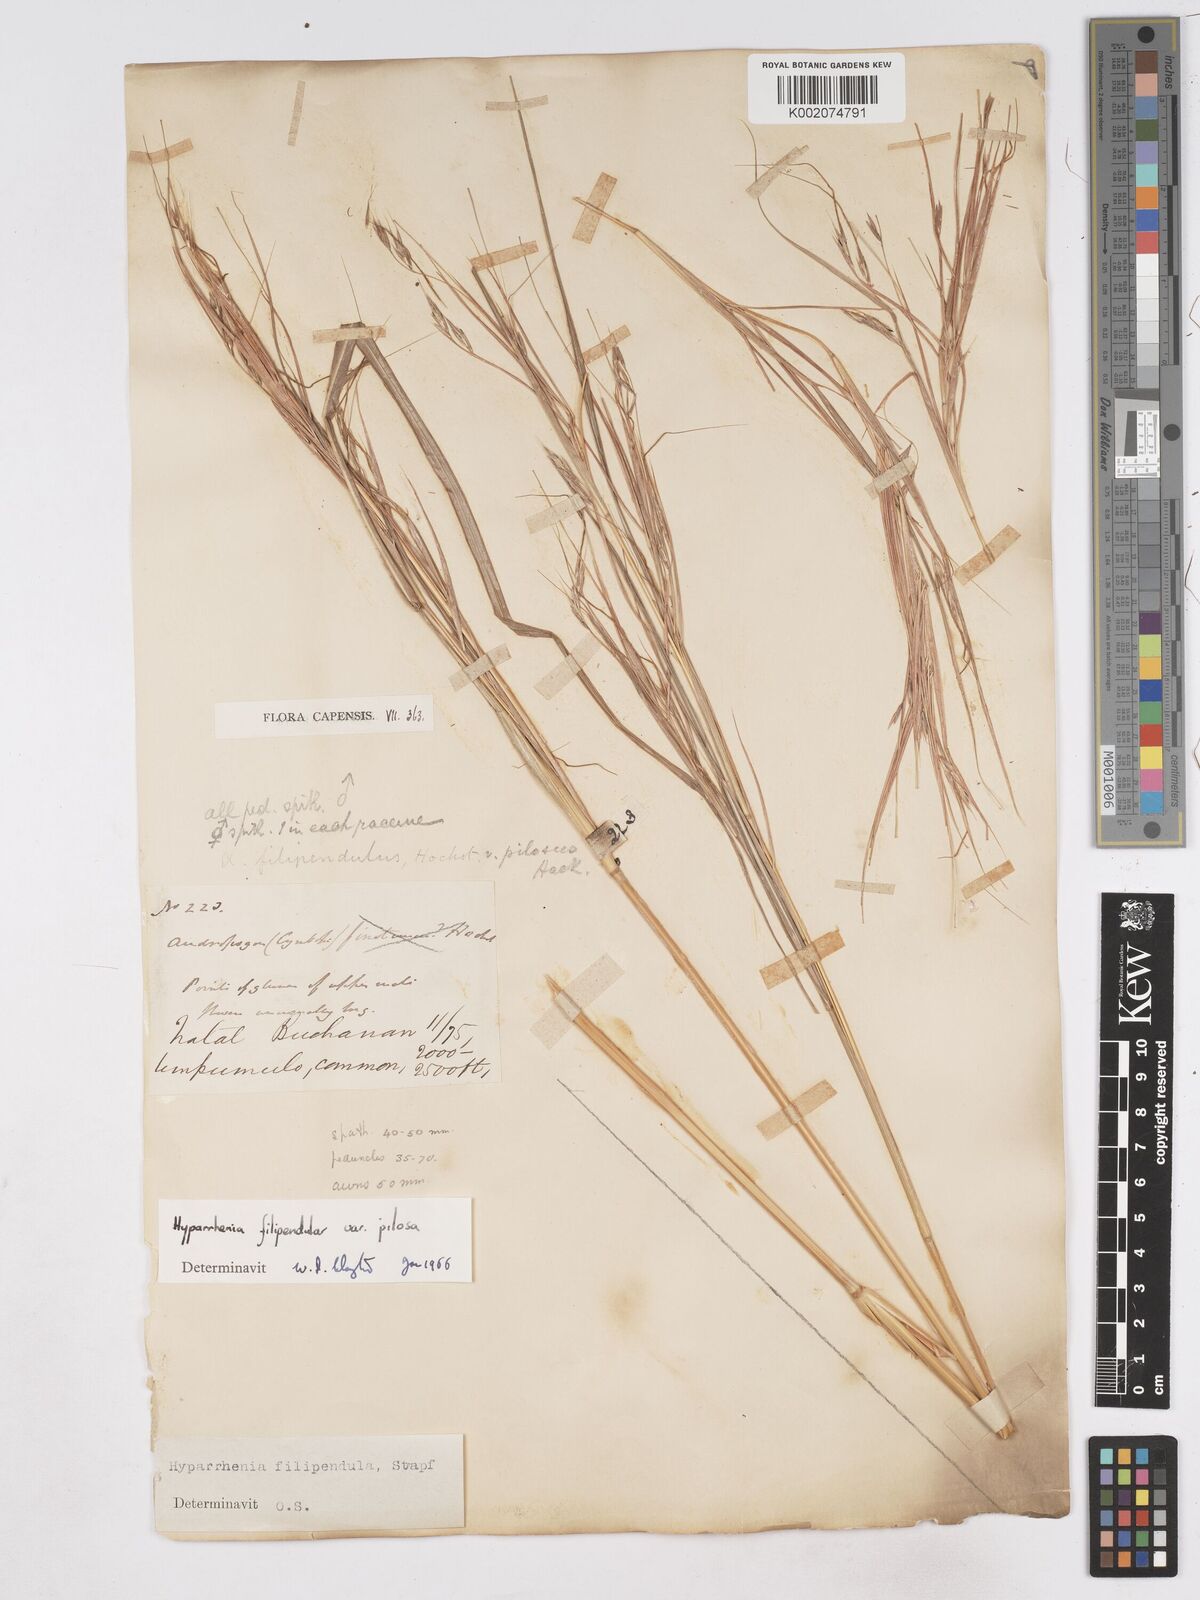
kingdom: Plantae
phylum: Tracheophyta
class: Liliopsida
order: Poales
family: Poaceae
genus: Hyparrhenia
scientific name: Hyparrhenia filipendula
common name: Tambookie grass
